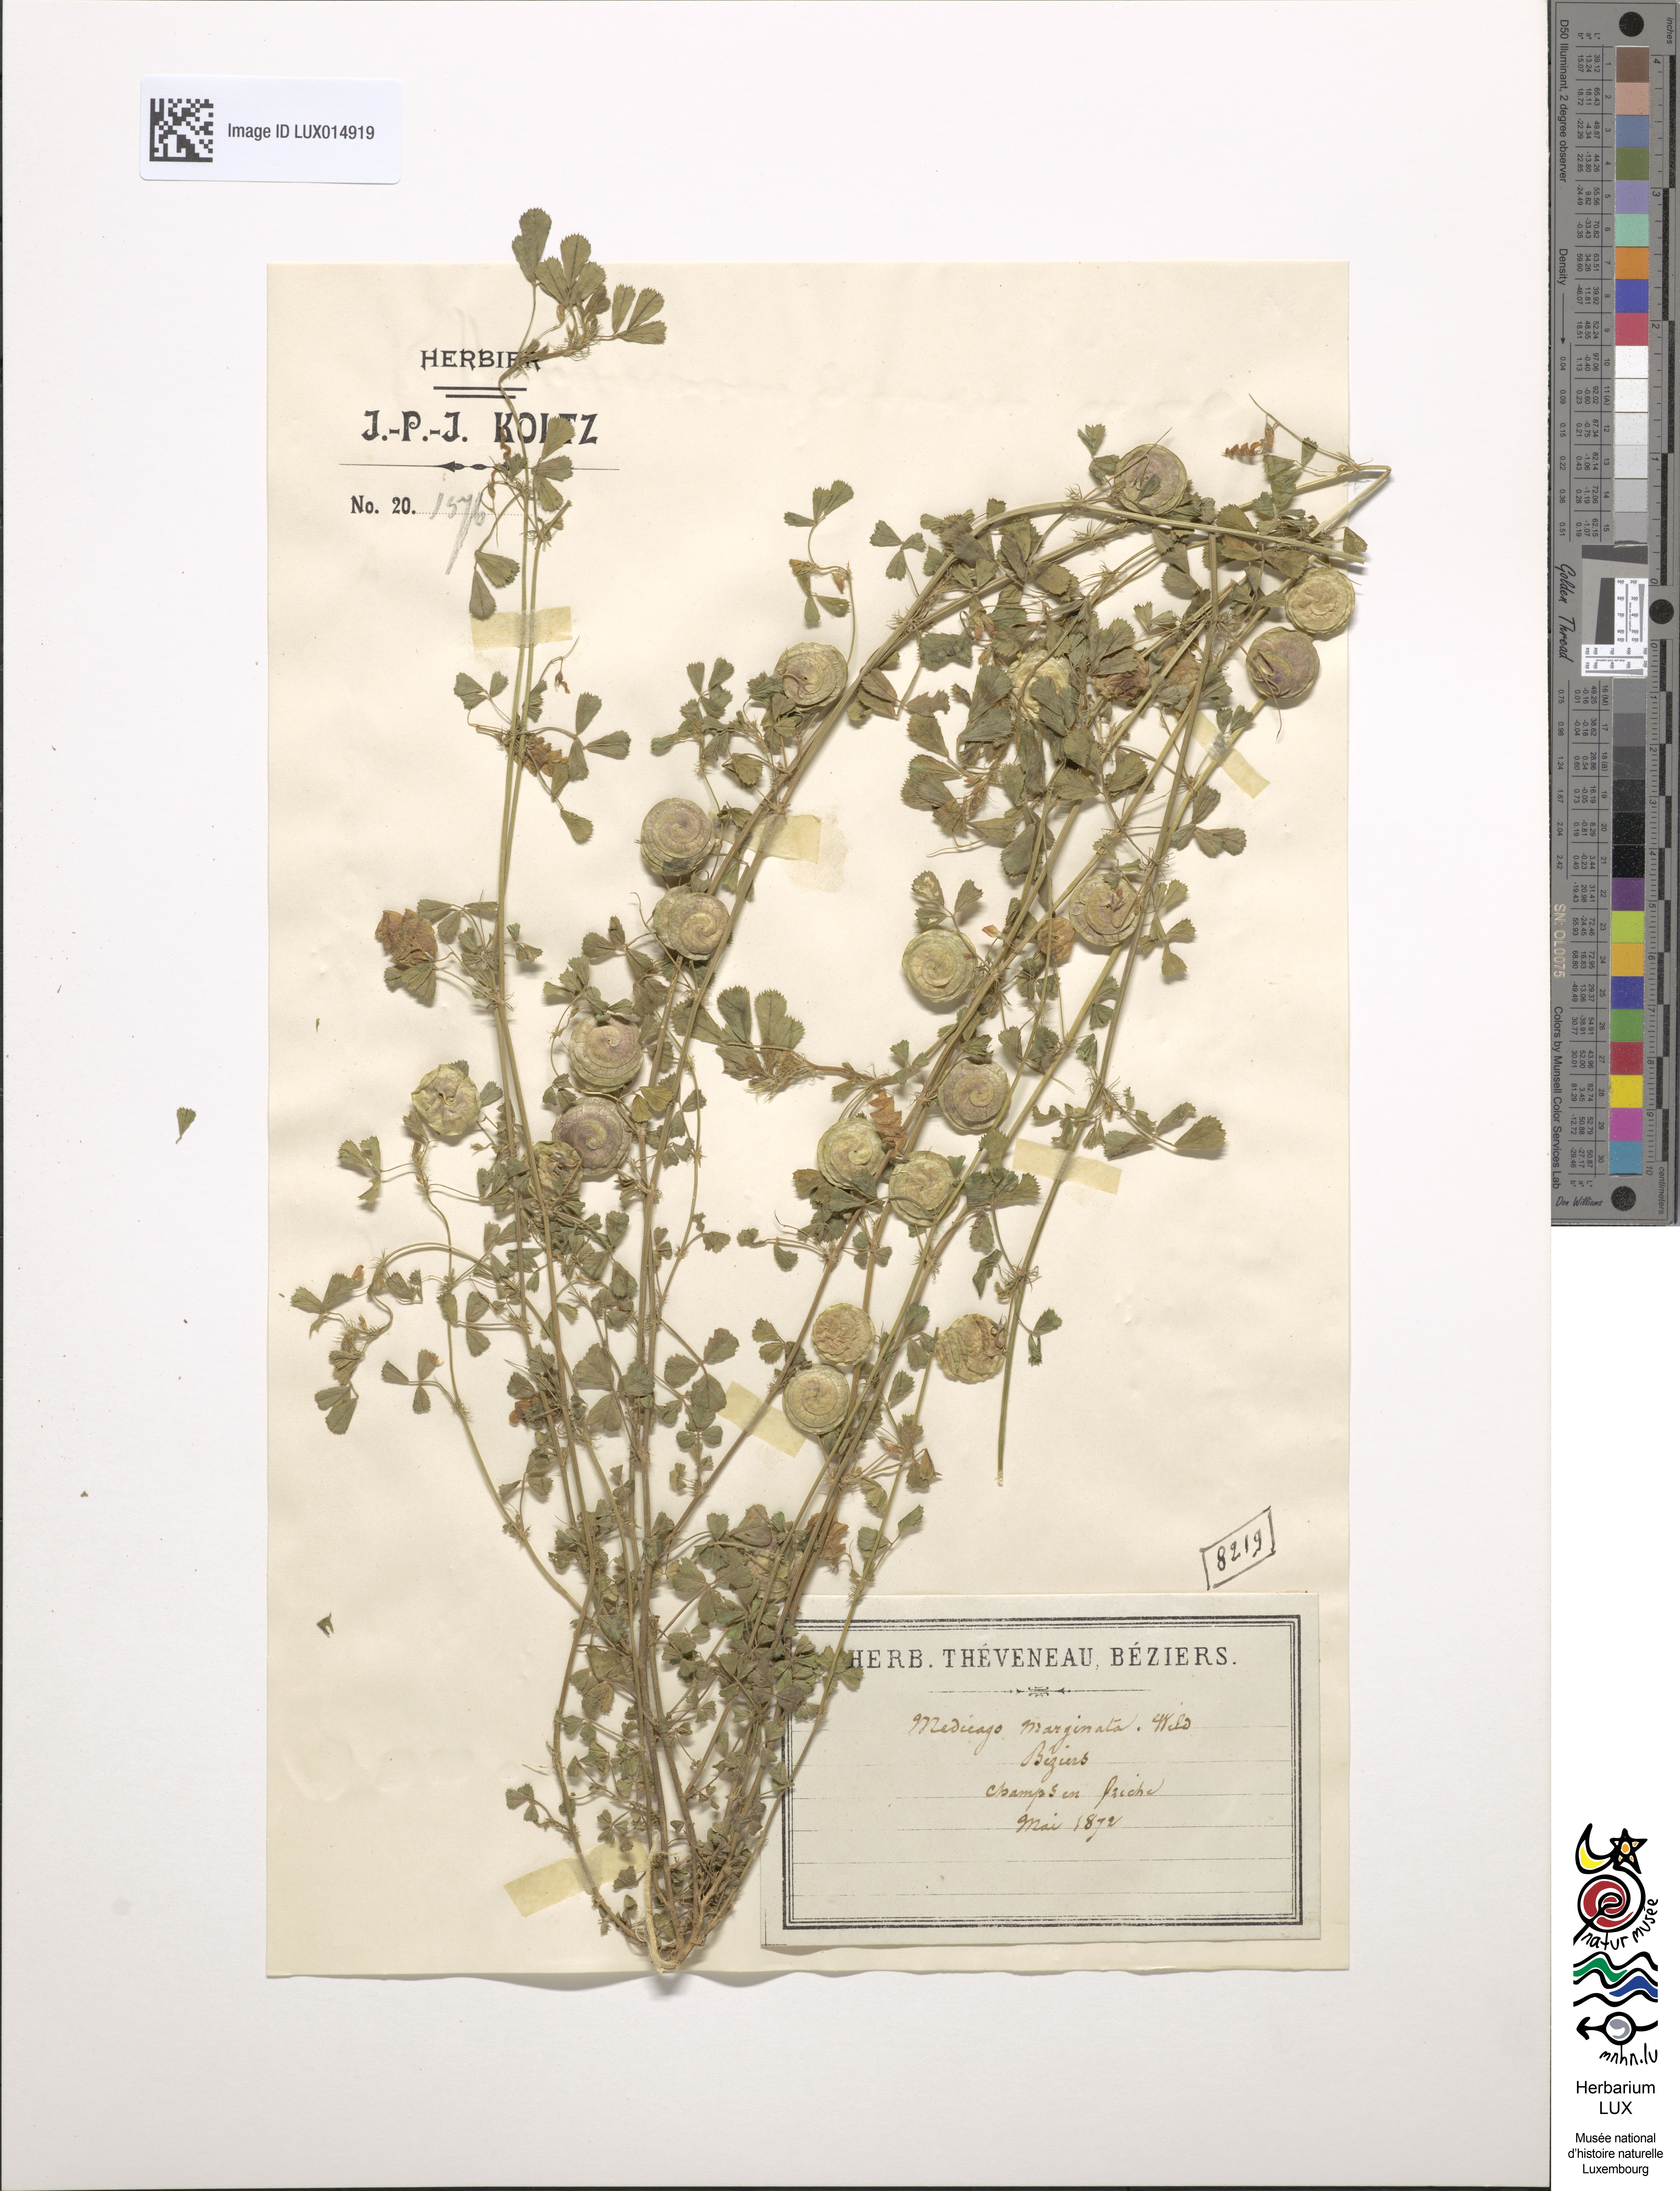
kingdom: Plantae
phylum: Tracheophyta
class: Magnoliopsida
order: Fabales
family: Fabaceae
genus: Medicago
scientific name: Medicago orbicularis
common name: Button medick
